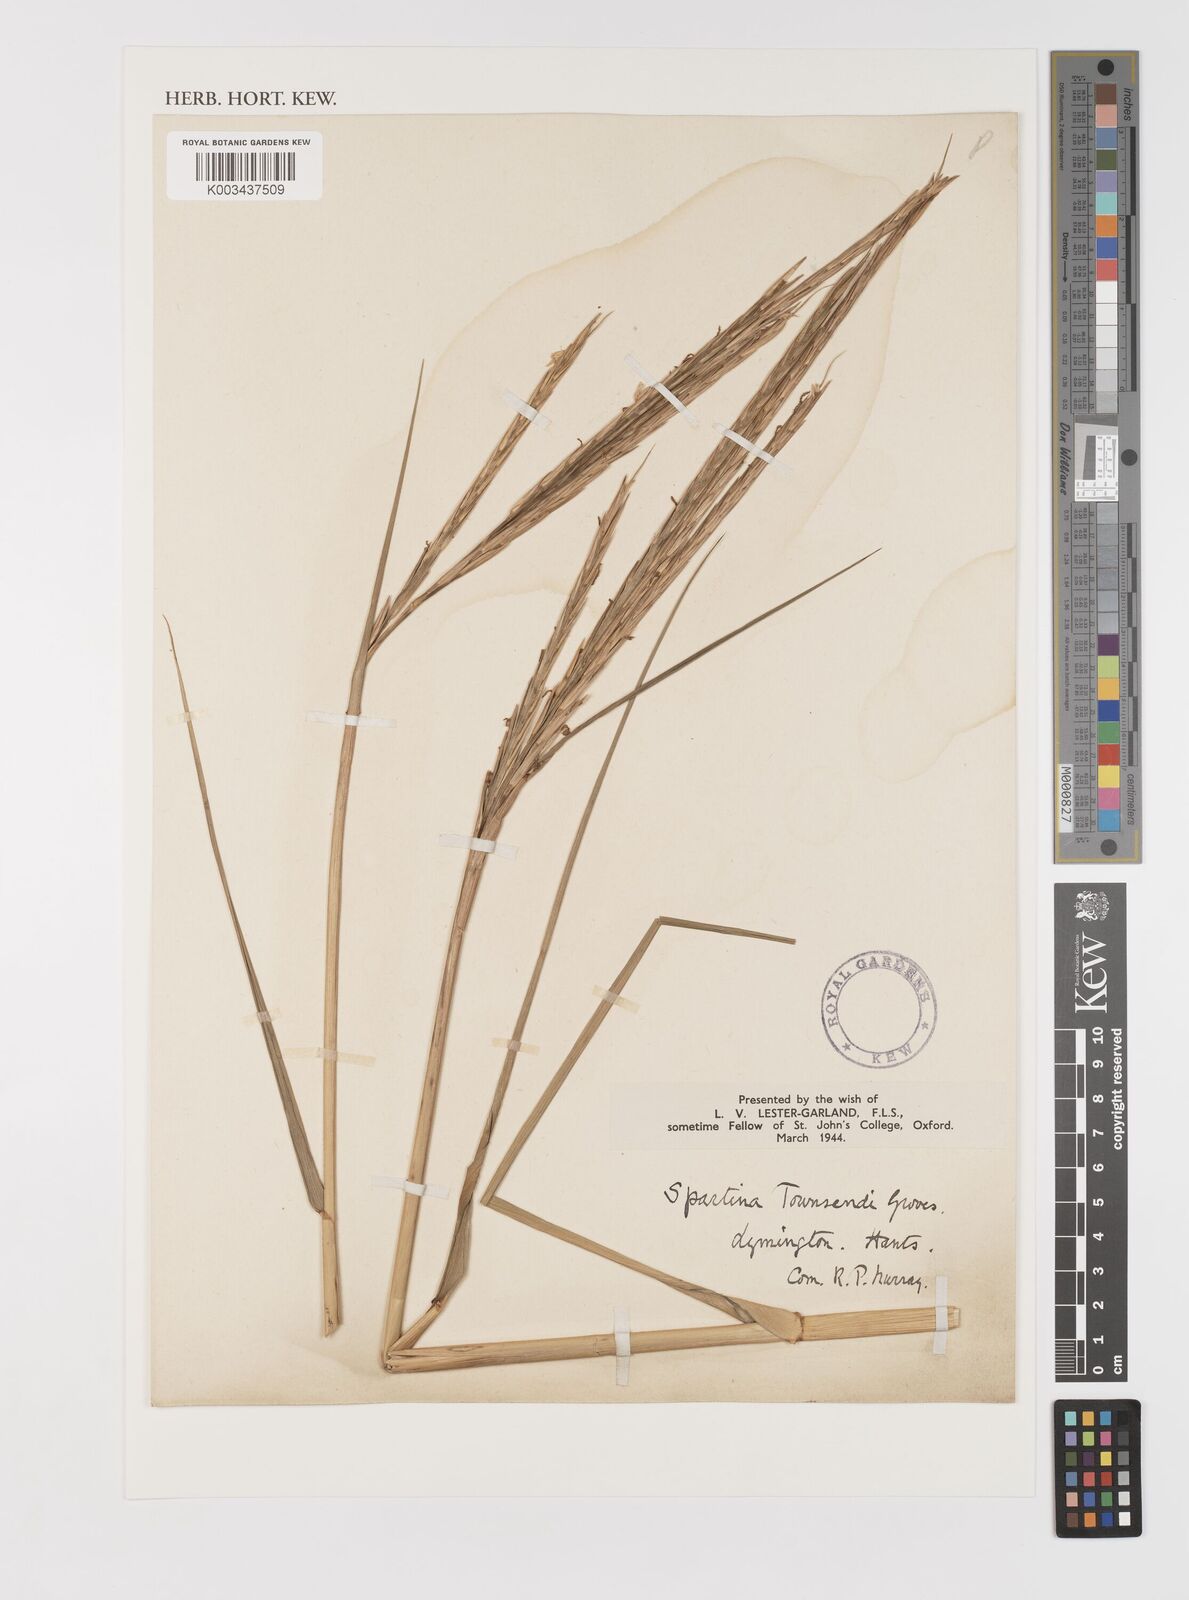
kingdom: Plantae
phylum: Tracheophyta
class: Liliopsida
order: Poales
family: Poaceae
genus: Sporobolus
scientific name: Sporobolus anglicus
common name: English cordgrass
